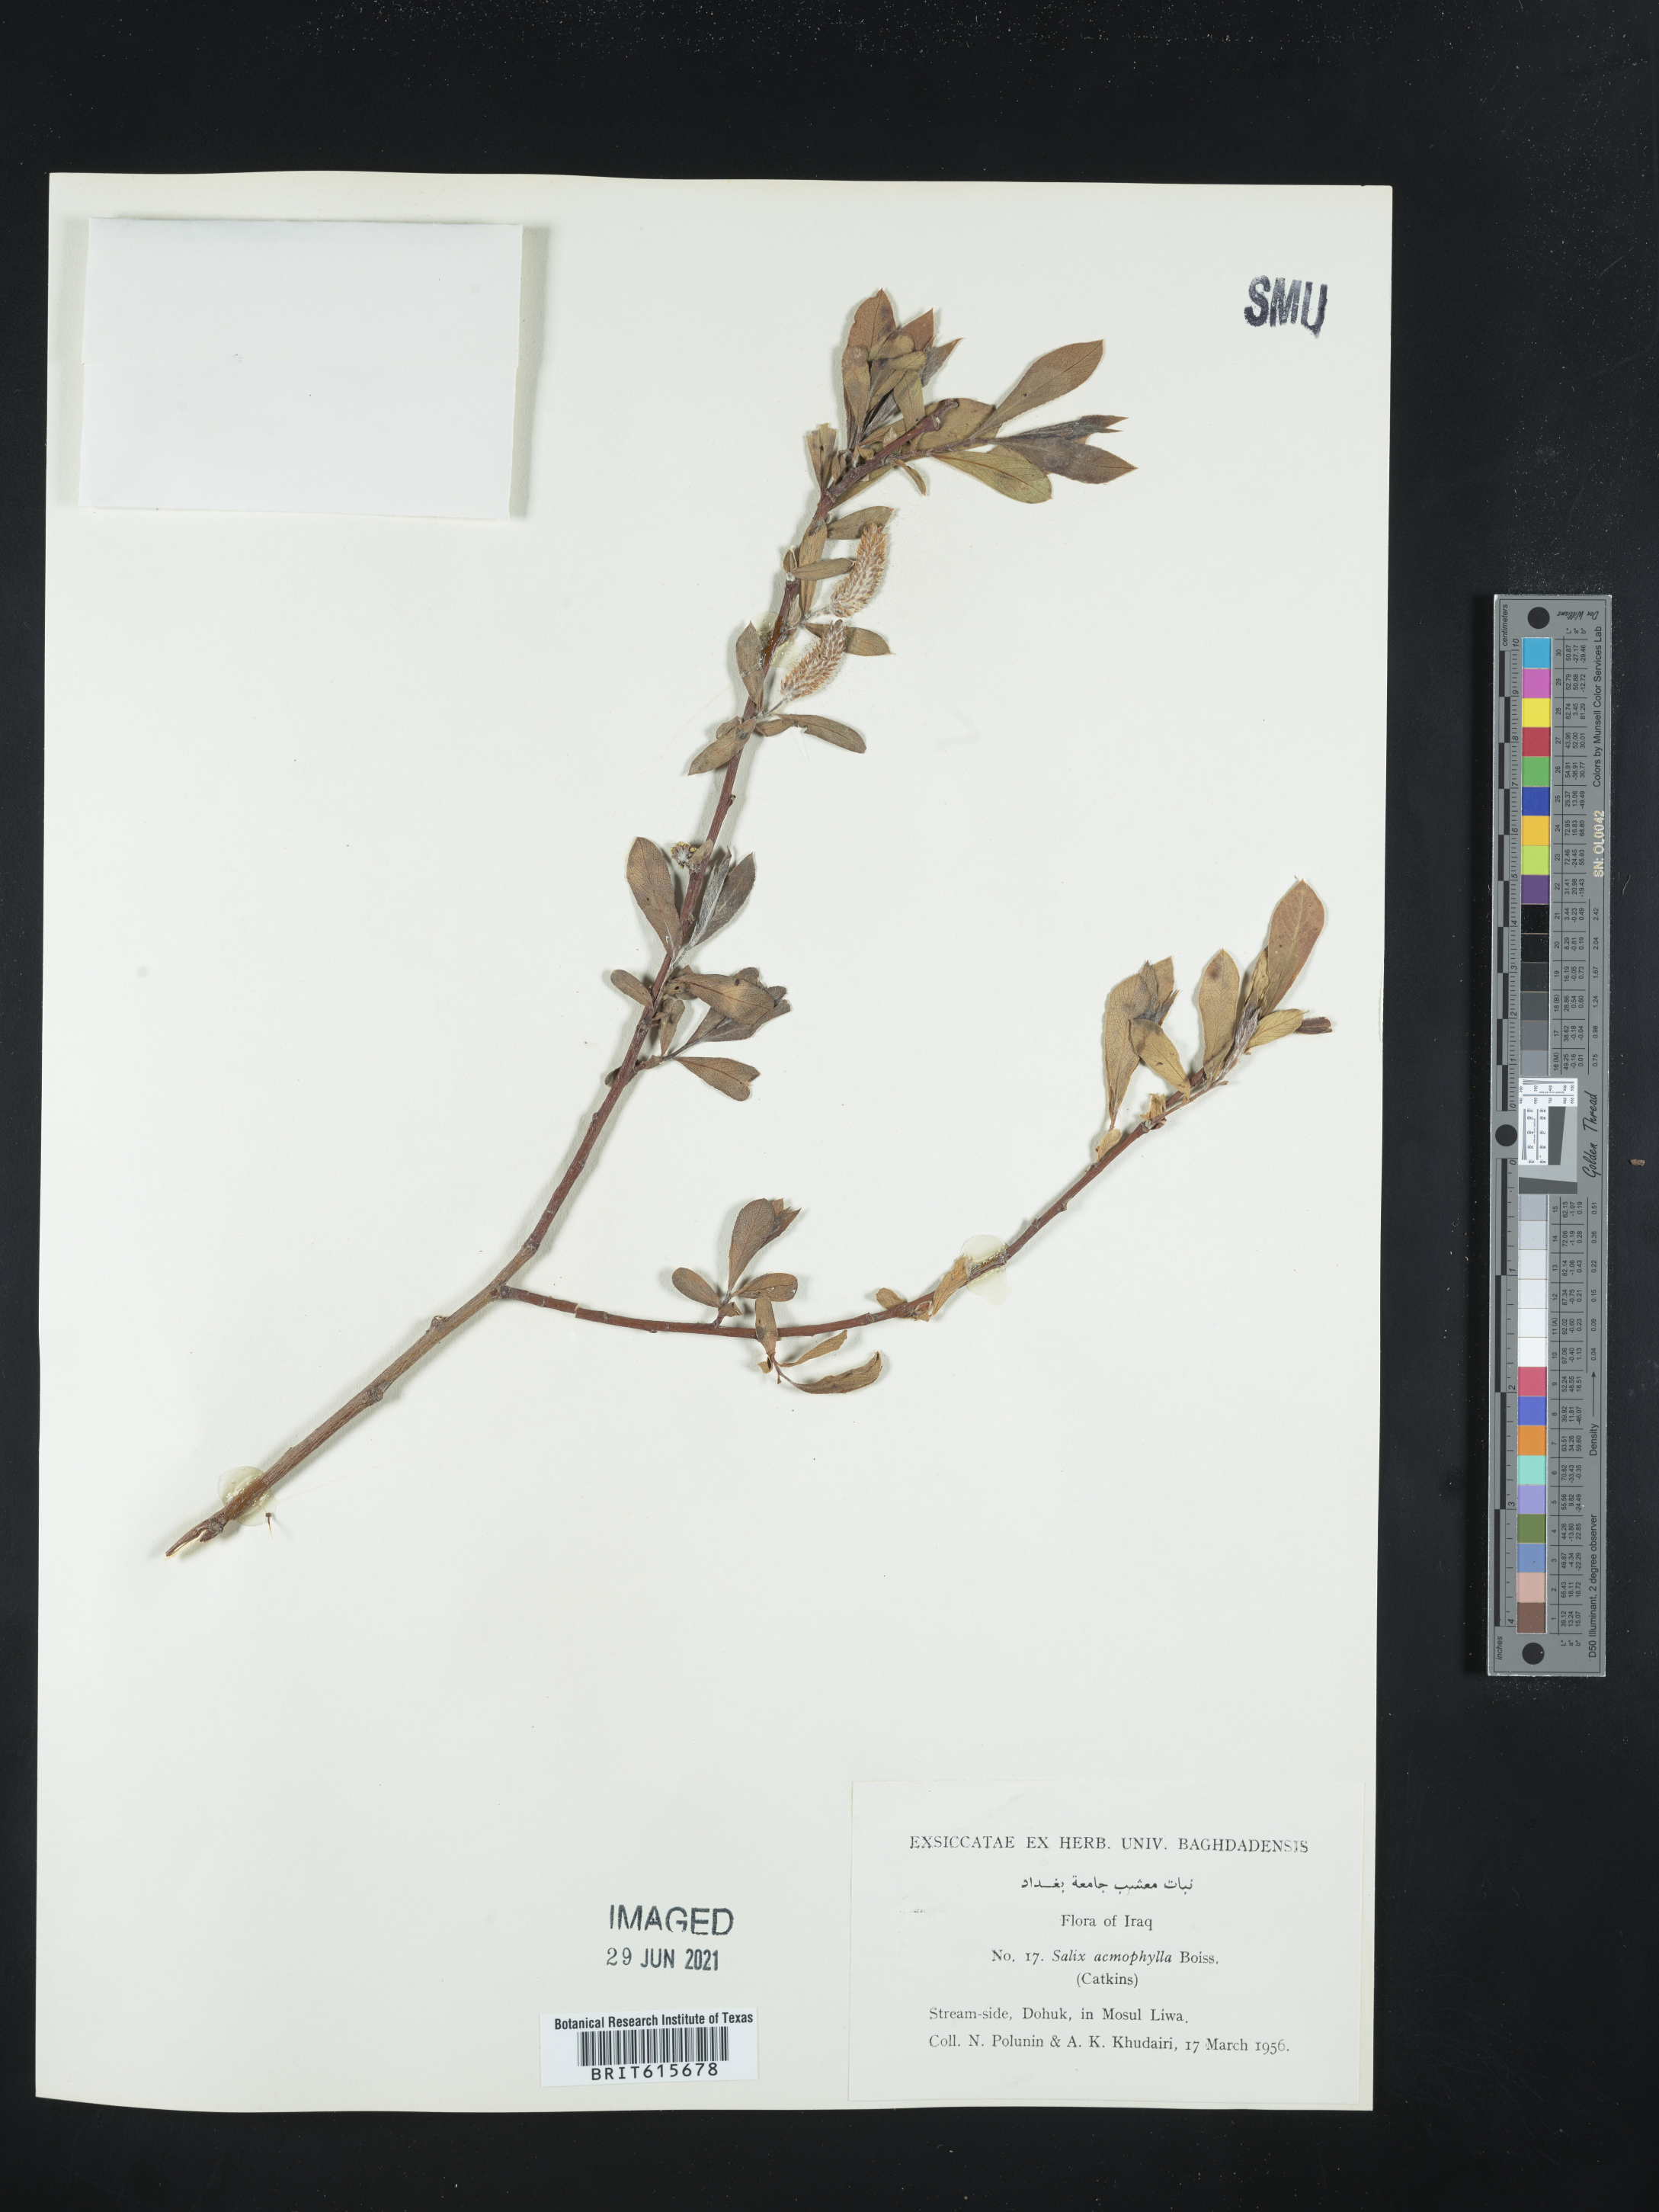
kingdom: Plantae
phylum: Tracheophyta
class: Magnoliopsida
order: Malpighiales
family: Salicaceae
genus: Salix
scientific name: Salix acmophylla
